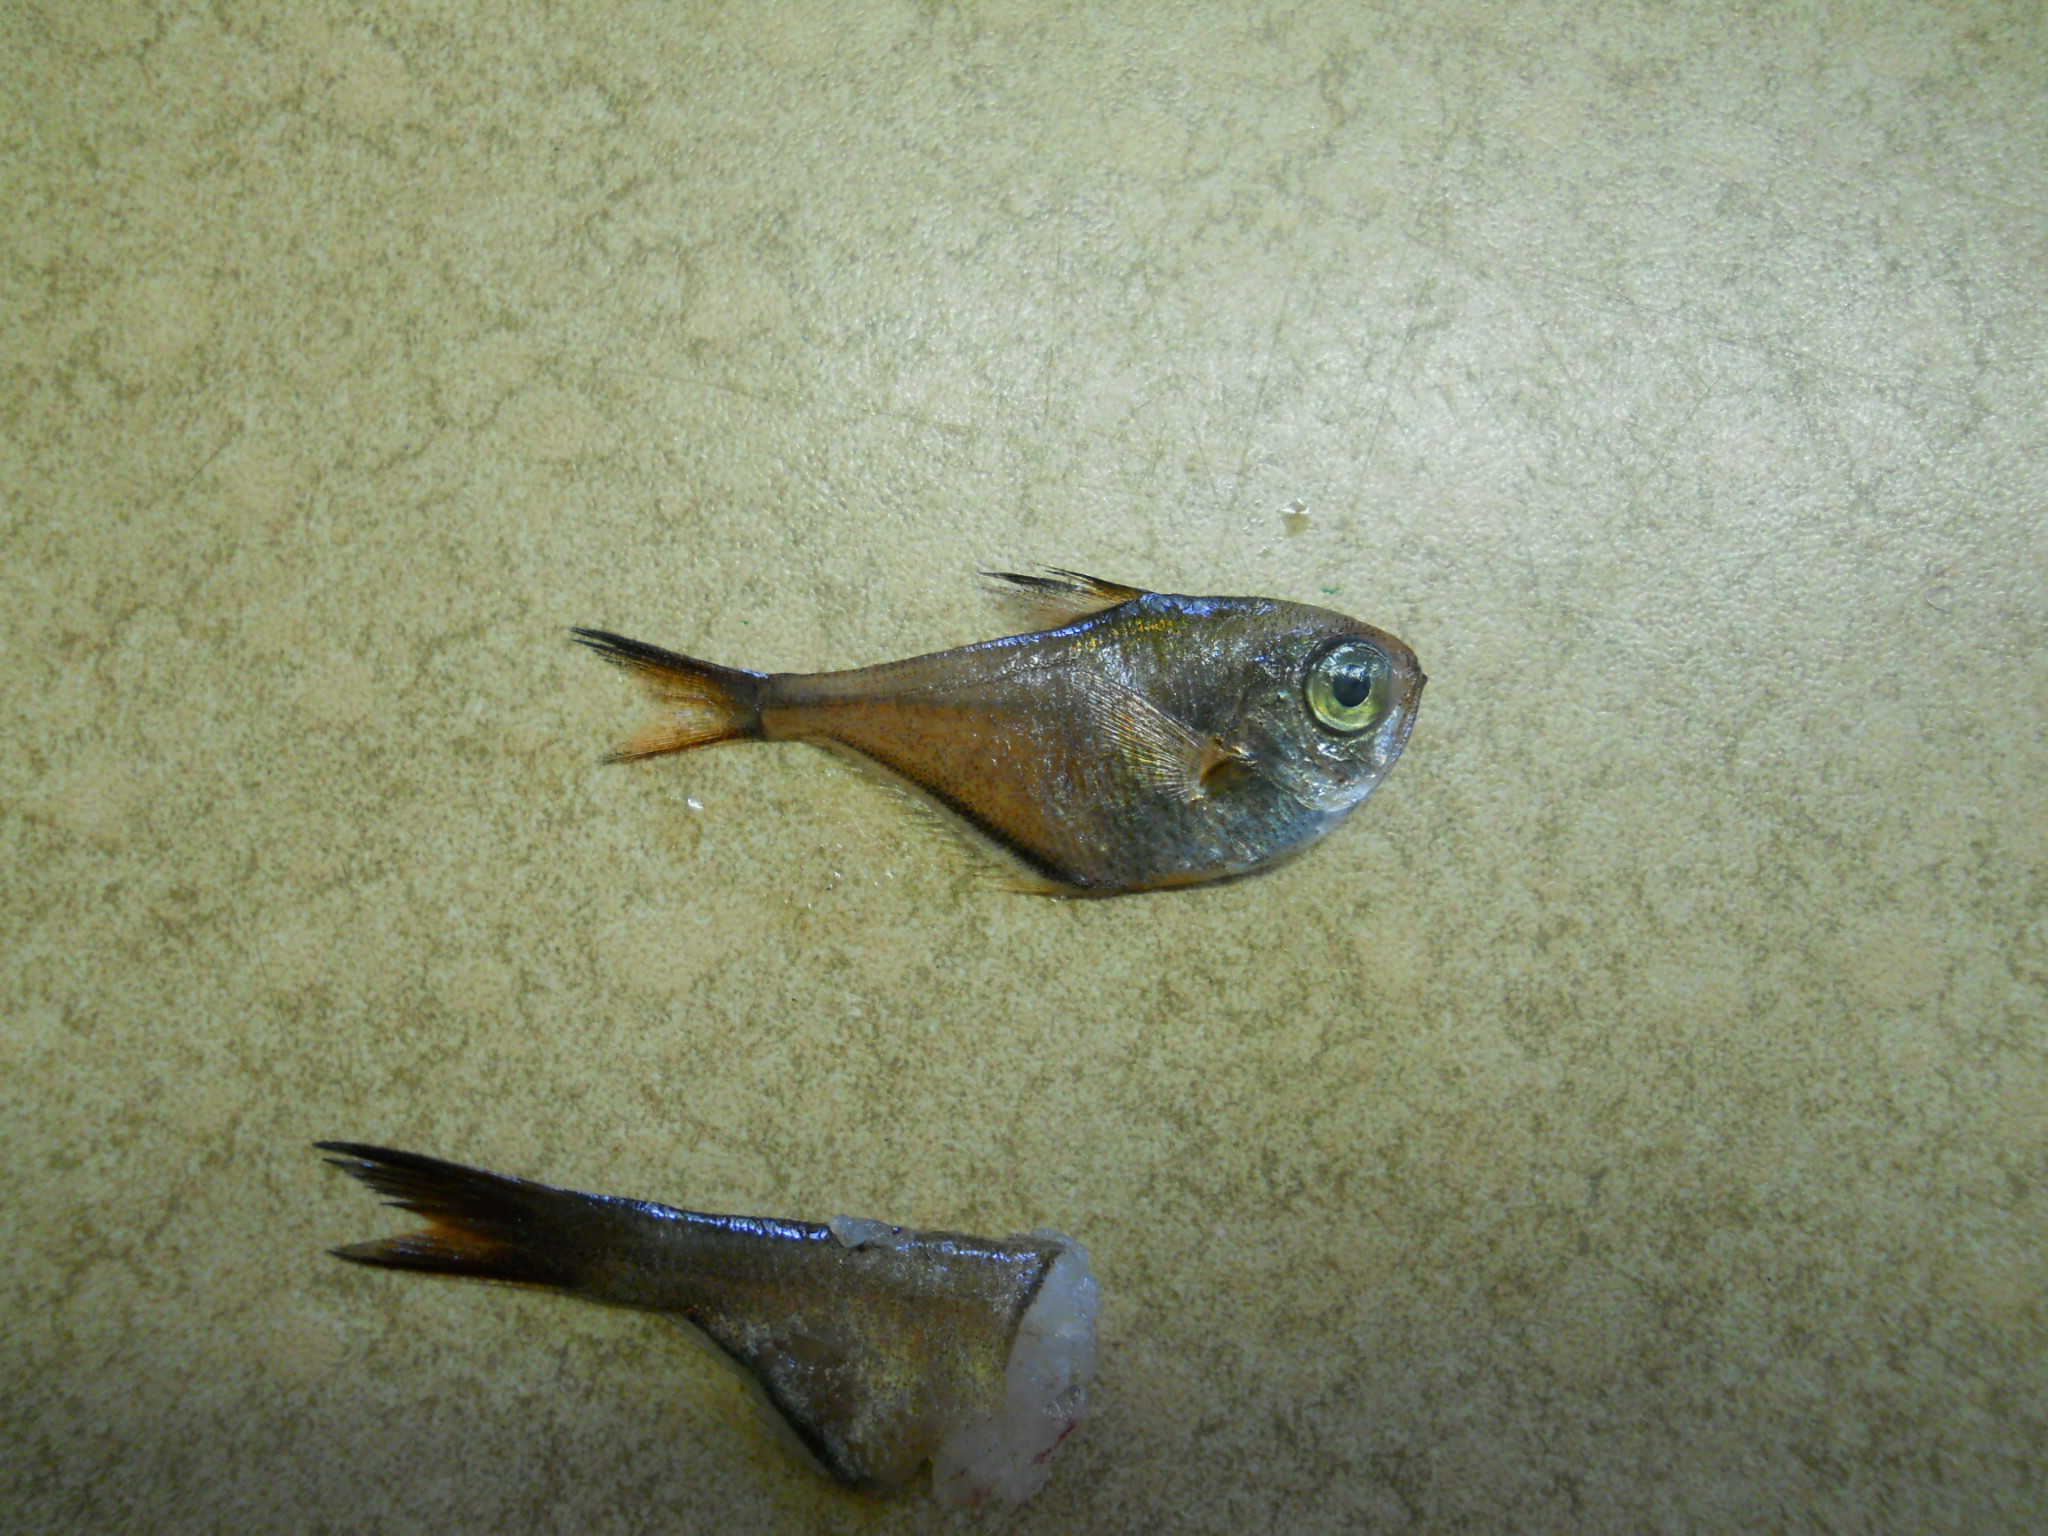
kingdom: Animalia
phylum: Chordata
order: Perciformes
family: Pempheridae
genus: Pempheris
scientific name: Pempheris ibo
